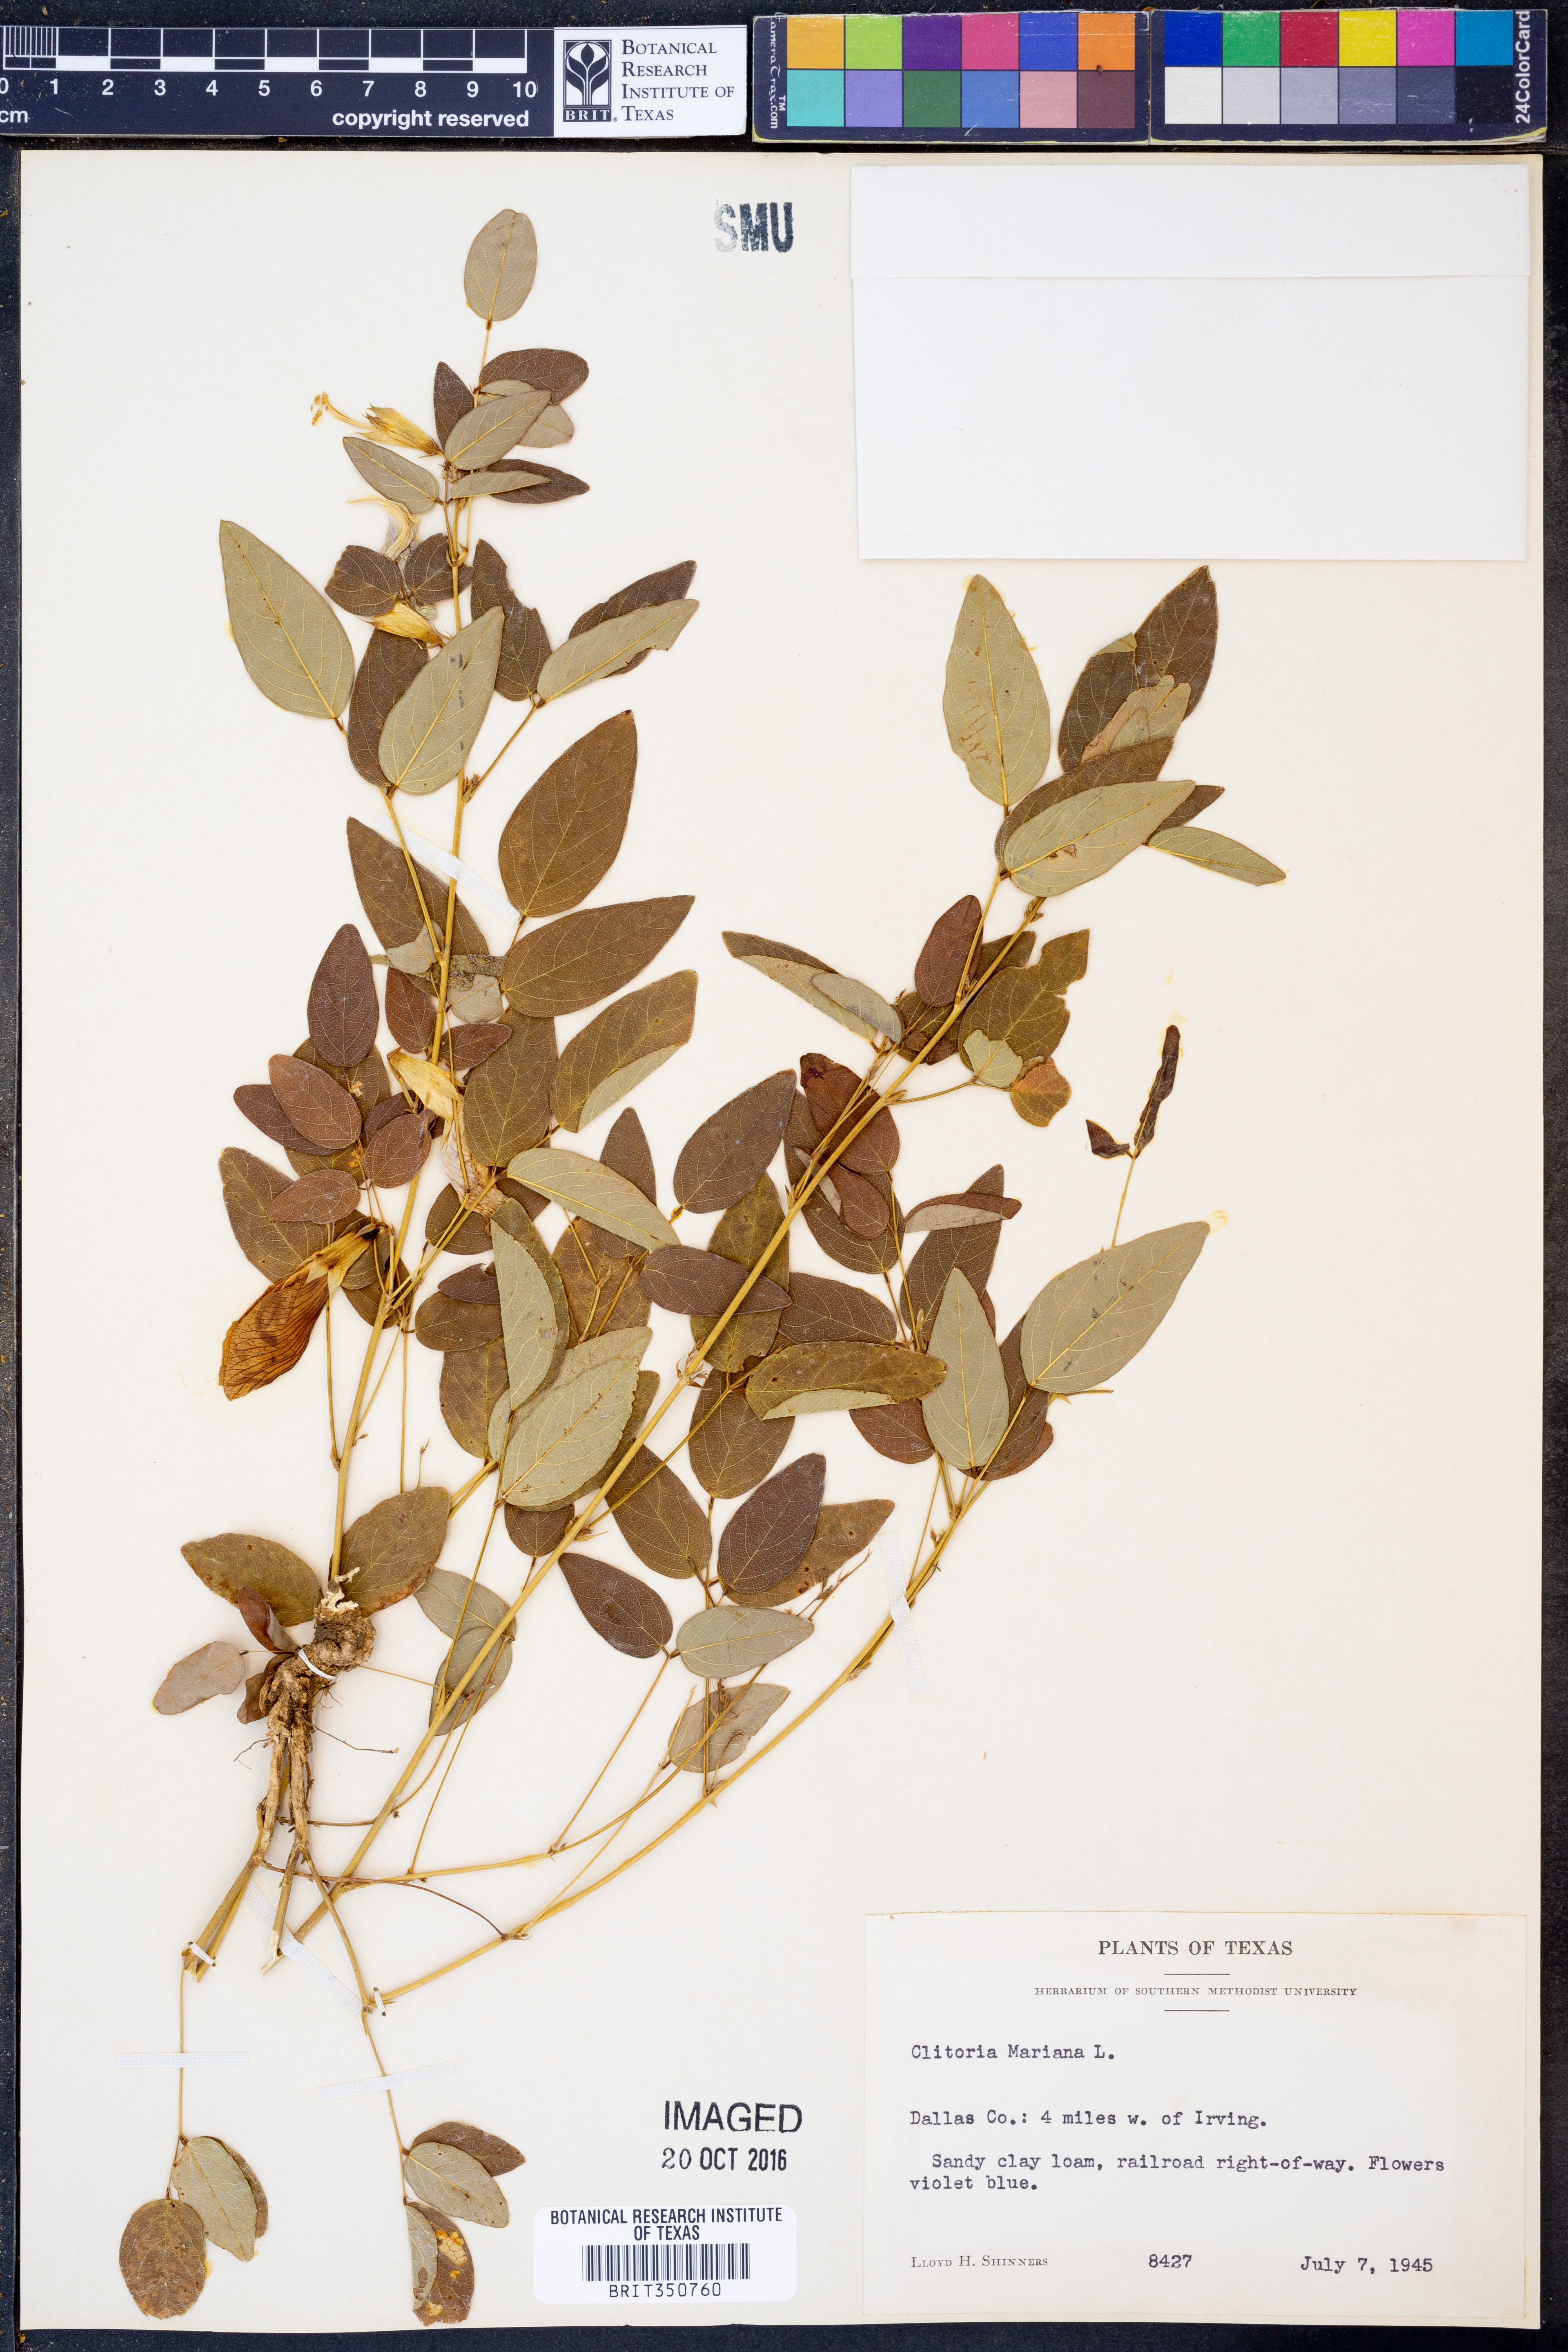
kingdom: Plantae
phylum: Tracheophyta
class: Magnoliopsida
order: Fabales
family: Fabaceae
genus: Clitoria
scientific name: Clitoria mariana
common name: Butterfly-pea
